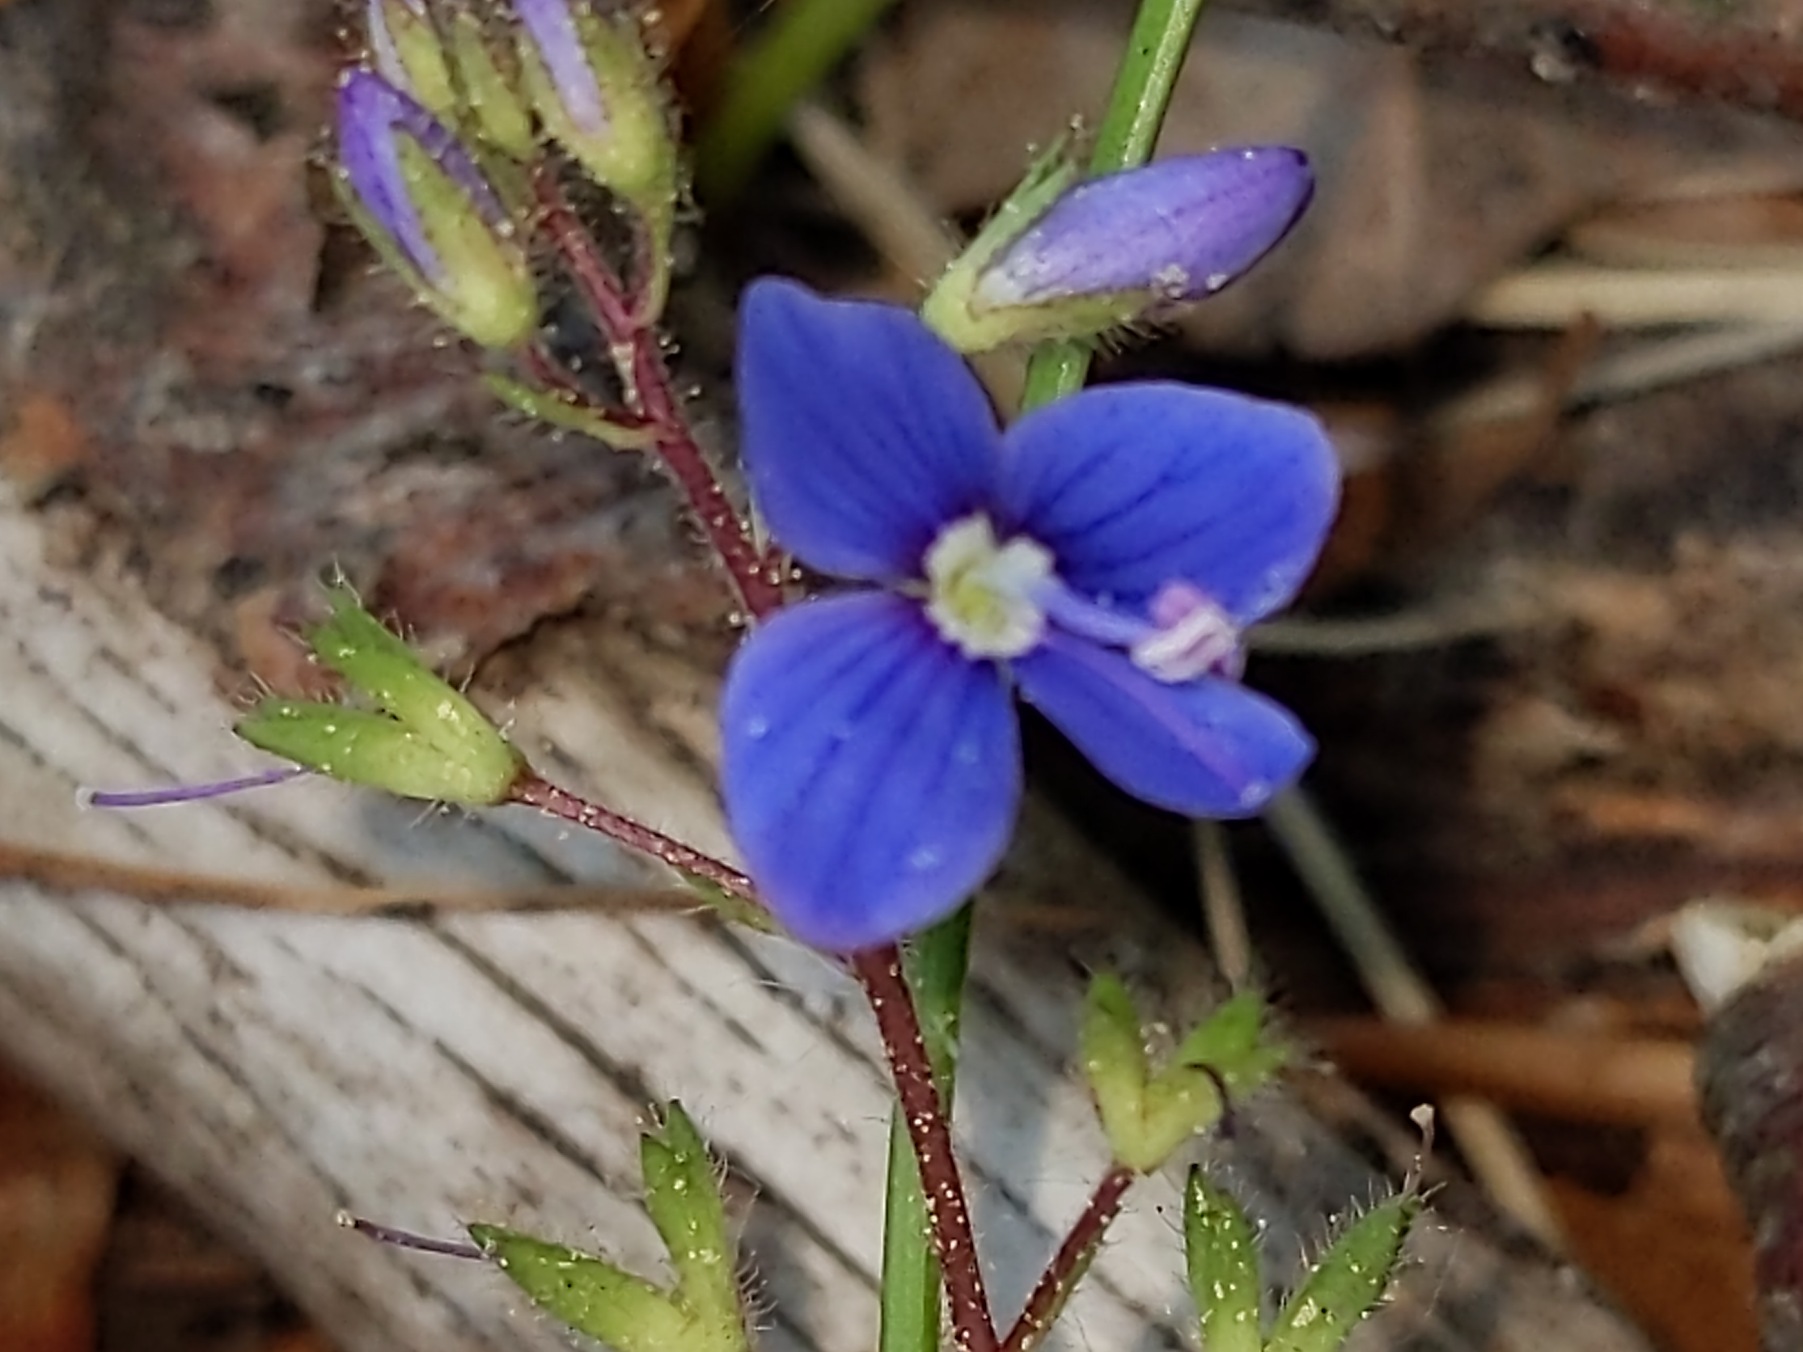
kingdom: Plantae
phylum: Tracheophyta
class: Magnoliopsida
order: Lamiales
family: Plantaginaceae
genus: Veronica
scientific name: Veronica chamaedrys
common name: Tveskægget ærenpris
